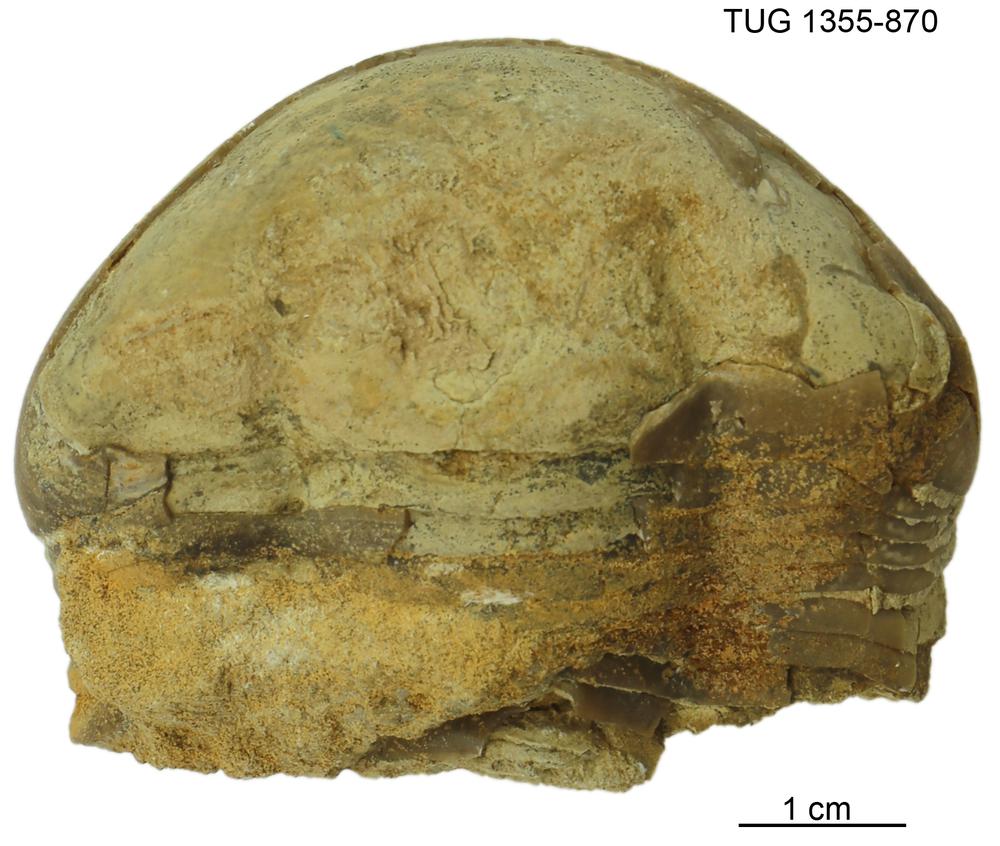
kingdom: Animalia
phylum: Arthropoda
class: Trilobita
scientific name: Trilobita
